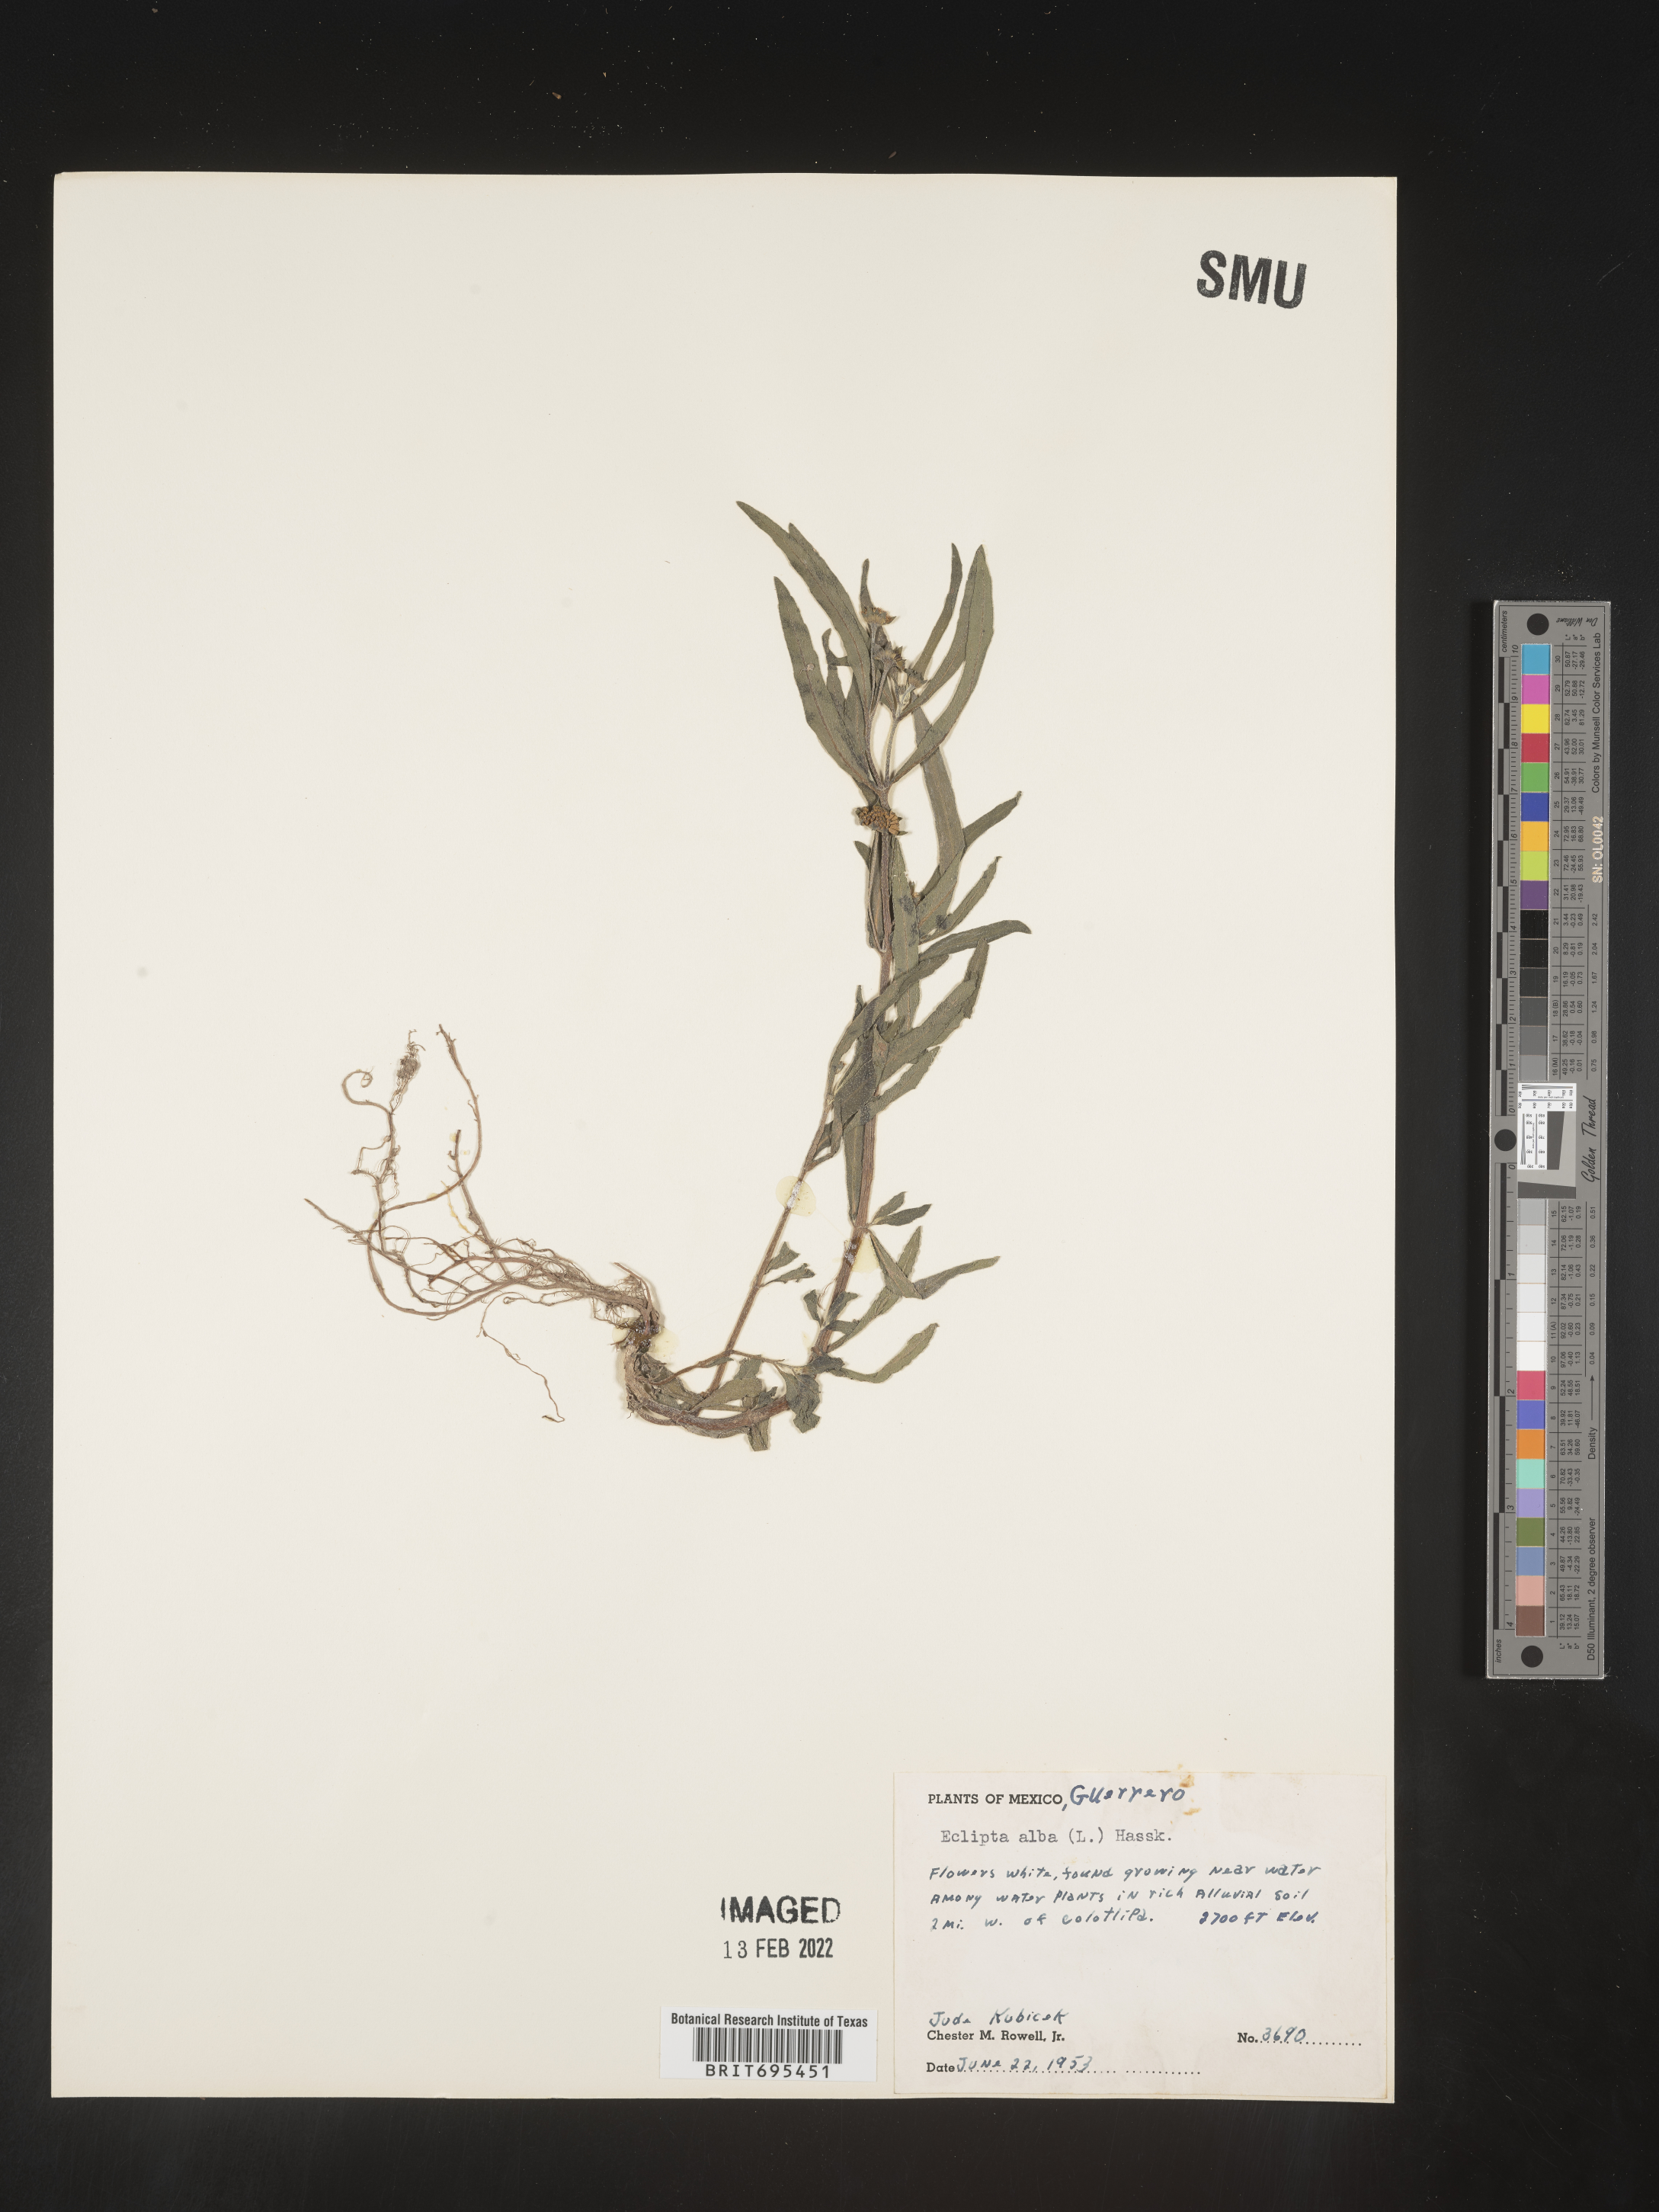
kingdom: Plantae
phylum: Tracheophyta
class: Magnoliopsida
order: Asterales
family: Asteraceae
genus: Eclipta
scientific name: Eclipta
